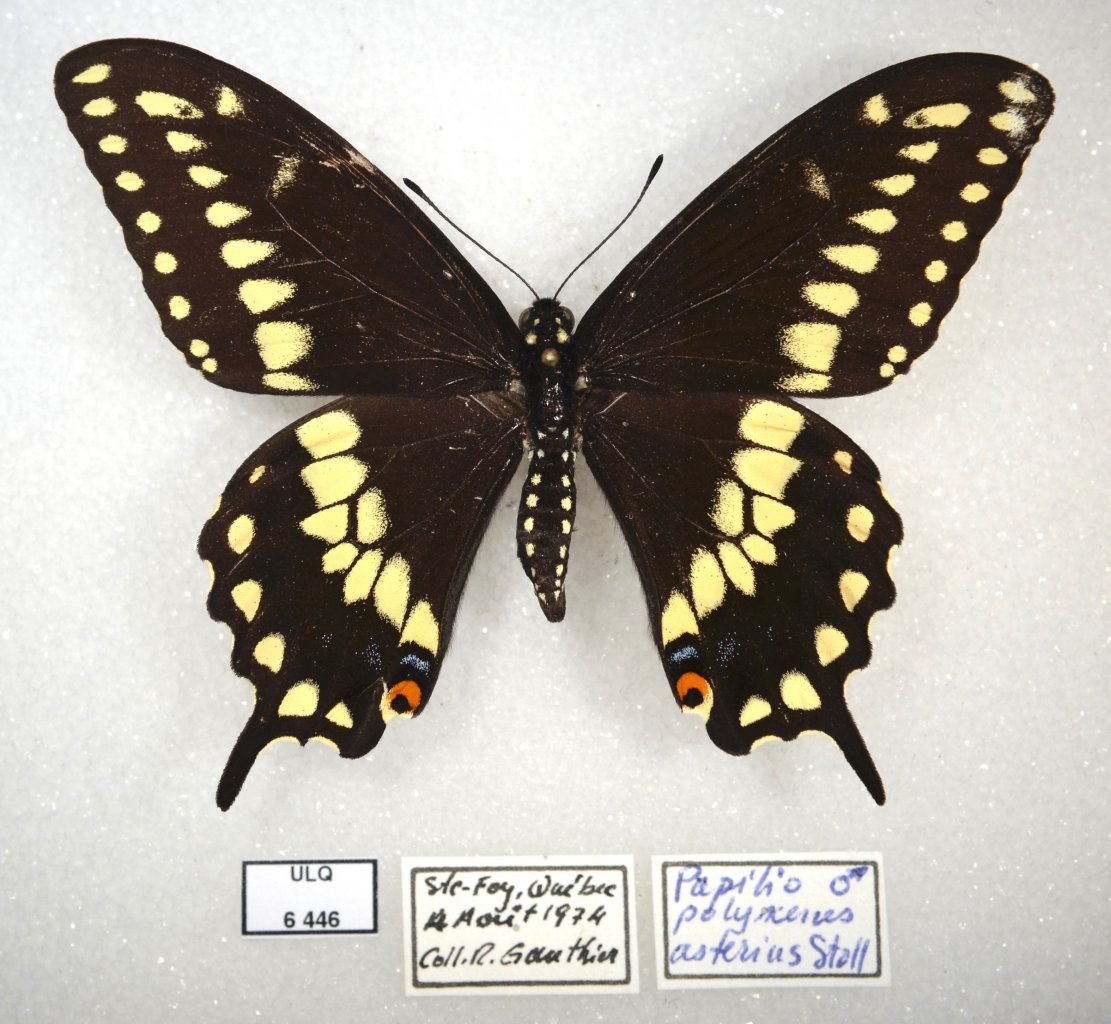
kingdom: Animalia
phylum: Arthropoda
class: Insecta
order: Lepidoptera
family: Papilionidae
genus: Papilio
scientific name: Papilio polyxenes
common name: Black Swallowtail
